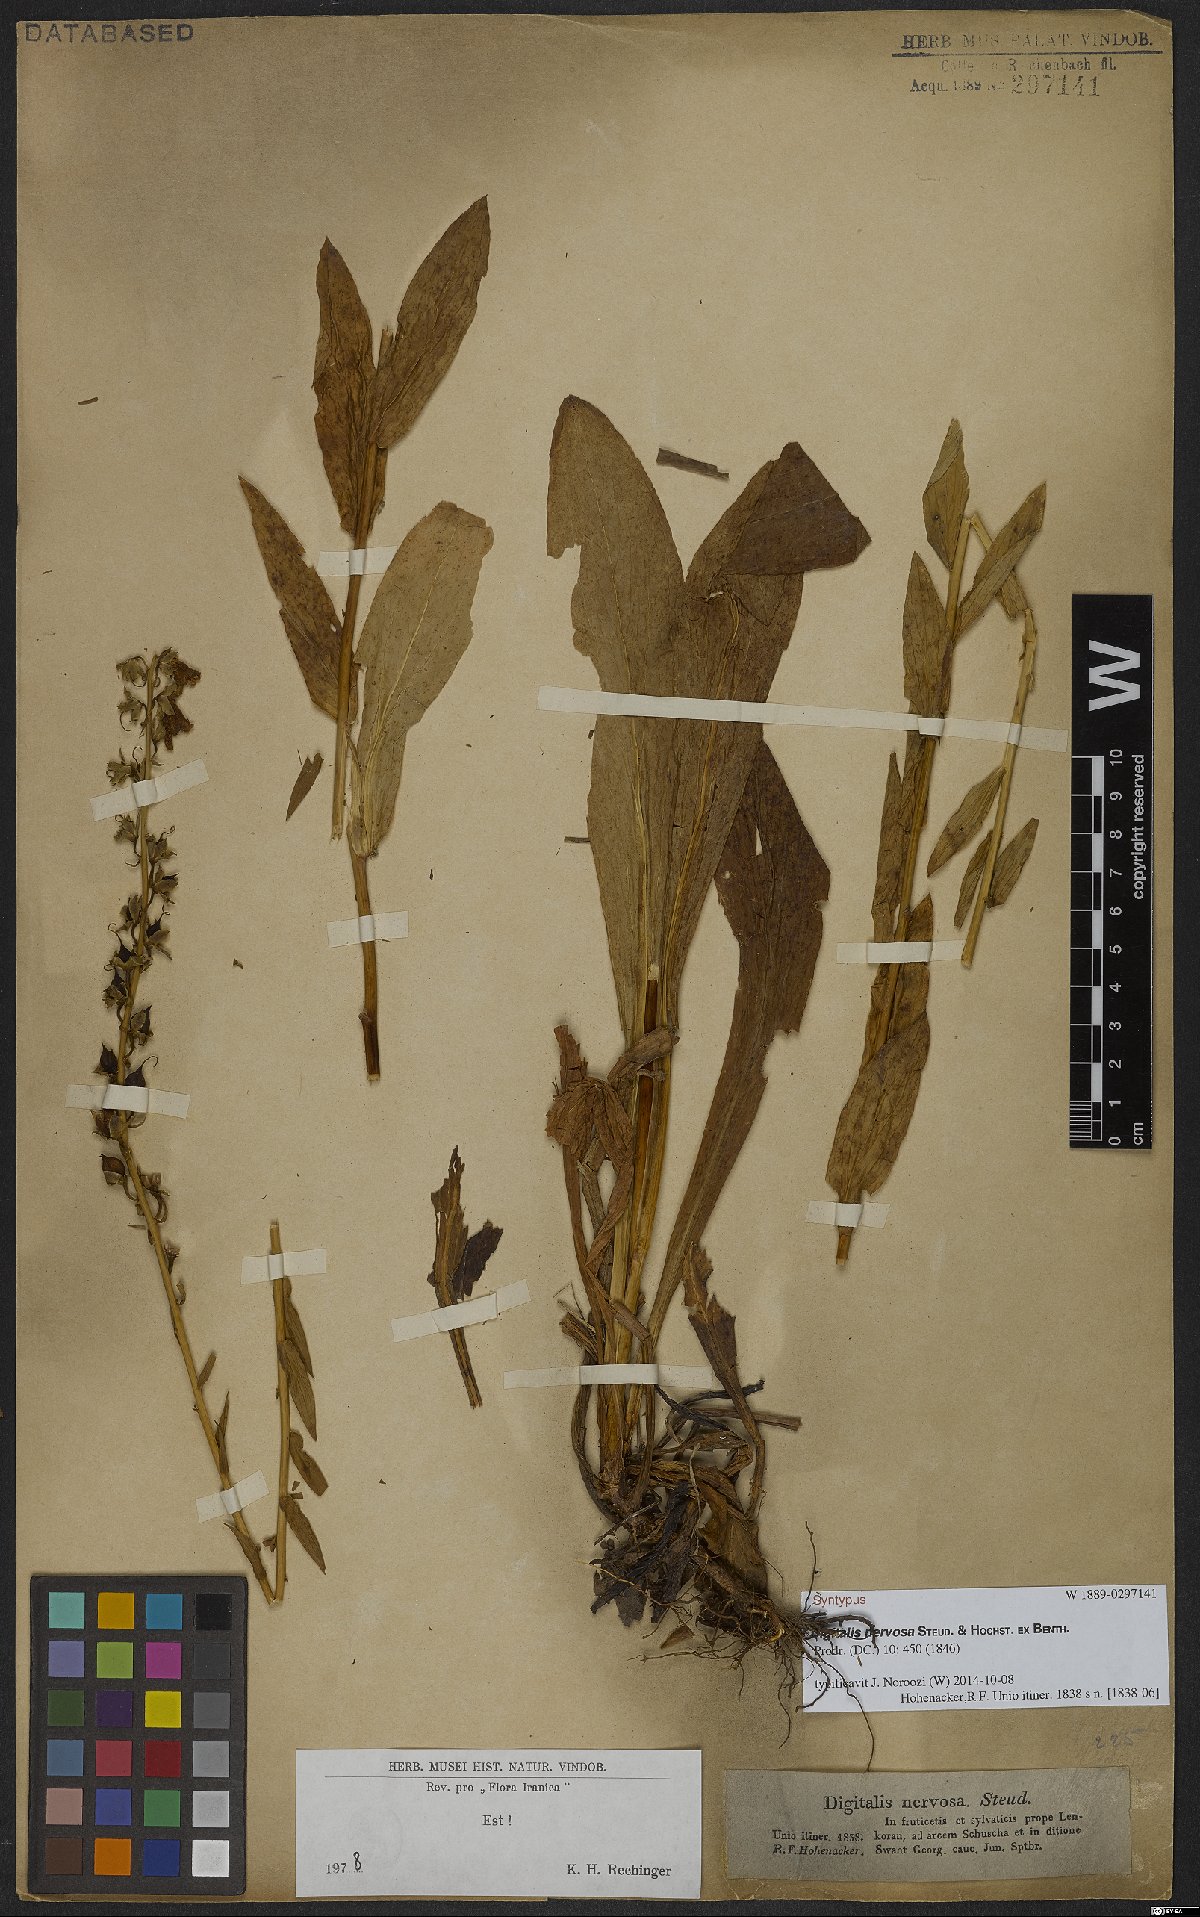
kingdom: Plantae
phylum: Tracheophyta
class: Magnoliopsida
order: Lamiales
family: Plantaginaceae
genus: Digitalis
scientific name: Digitalis nervosa
